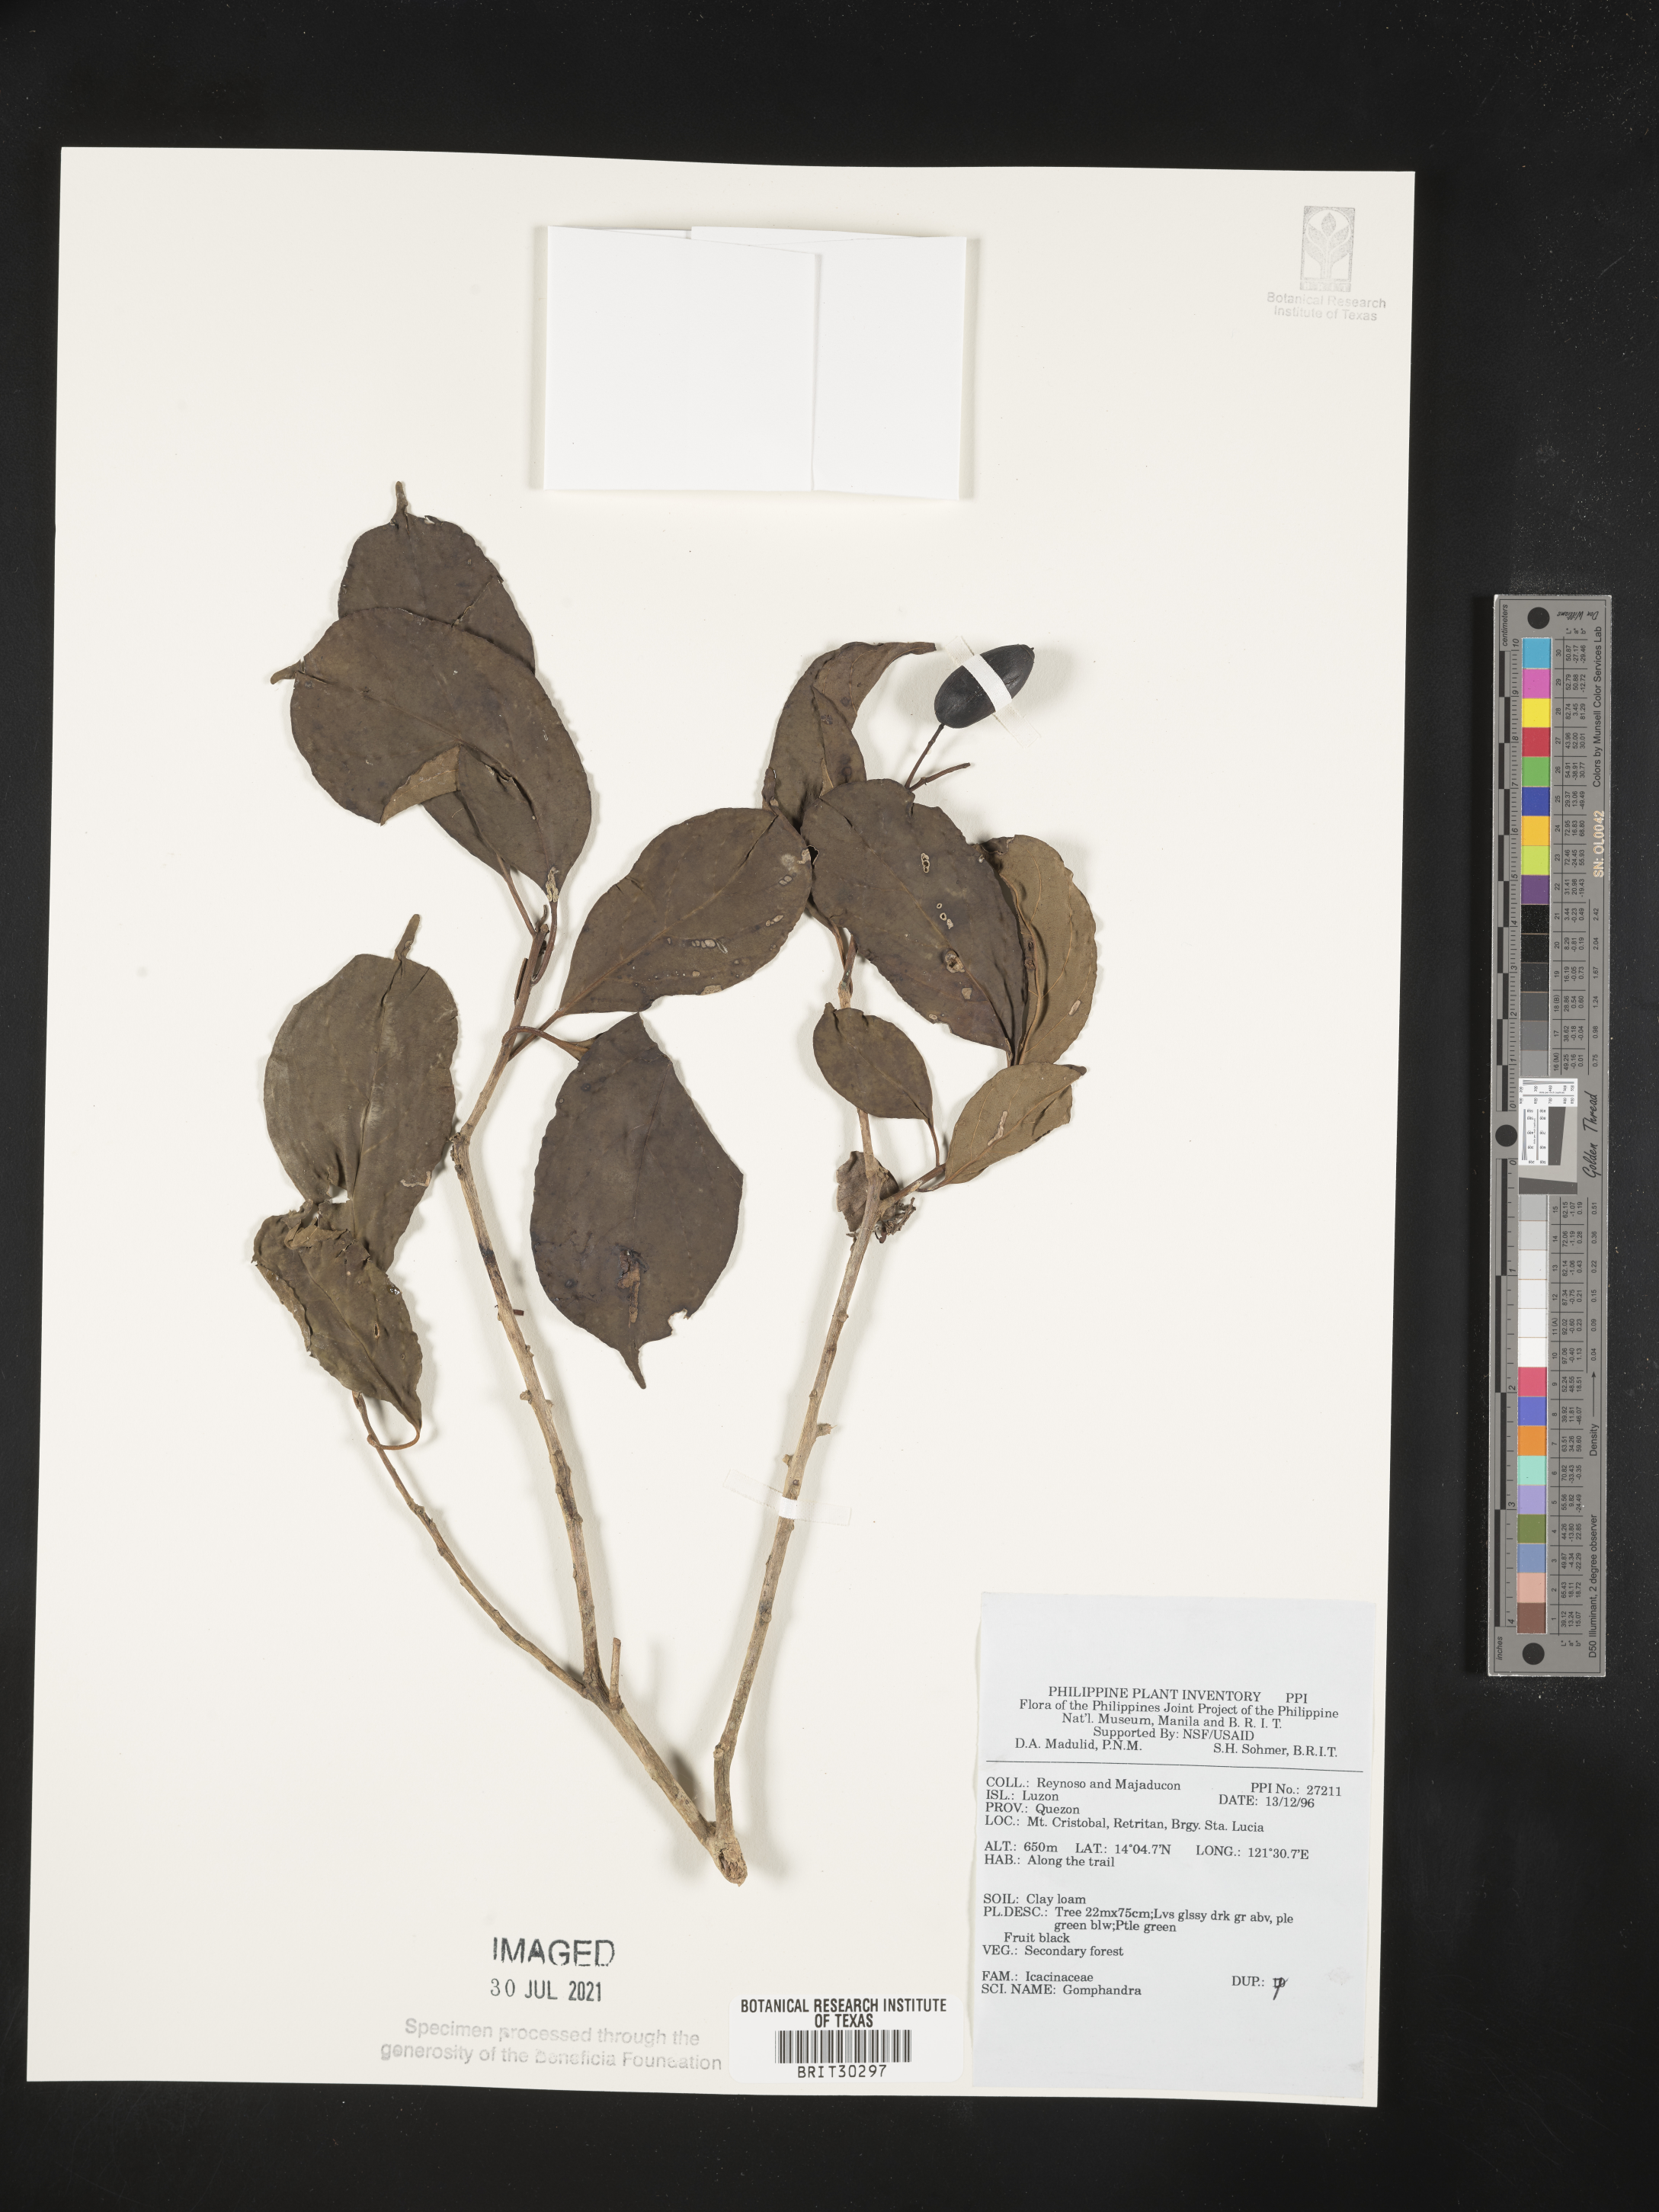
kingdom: Plantae
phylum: Tracheophyta
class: Magnoliopsida
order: Cardiopteridales
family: Stemonuraceae
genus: Gomphandra
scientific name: Gomphandra
